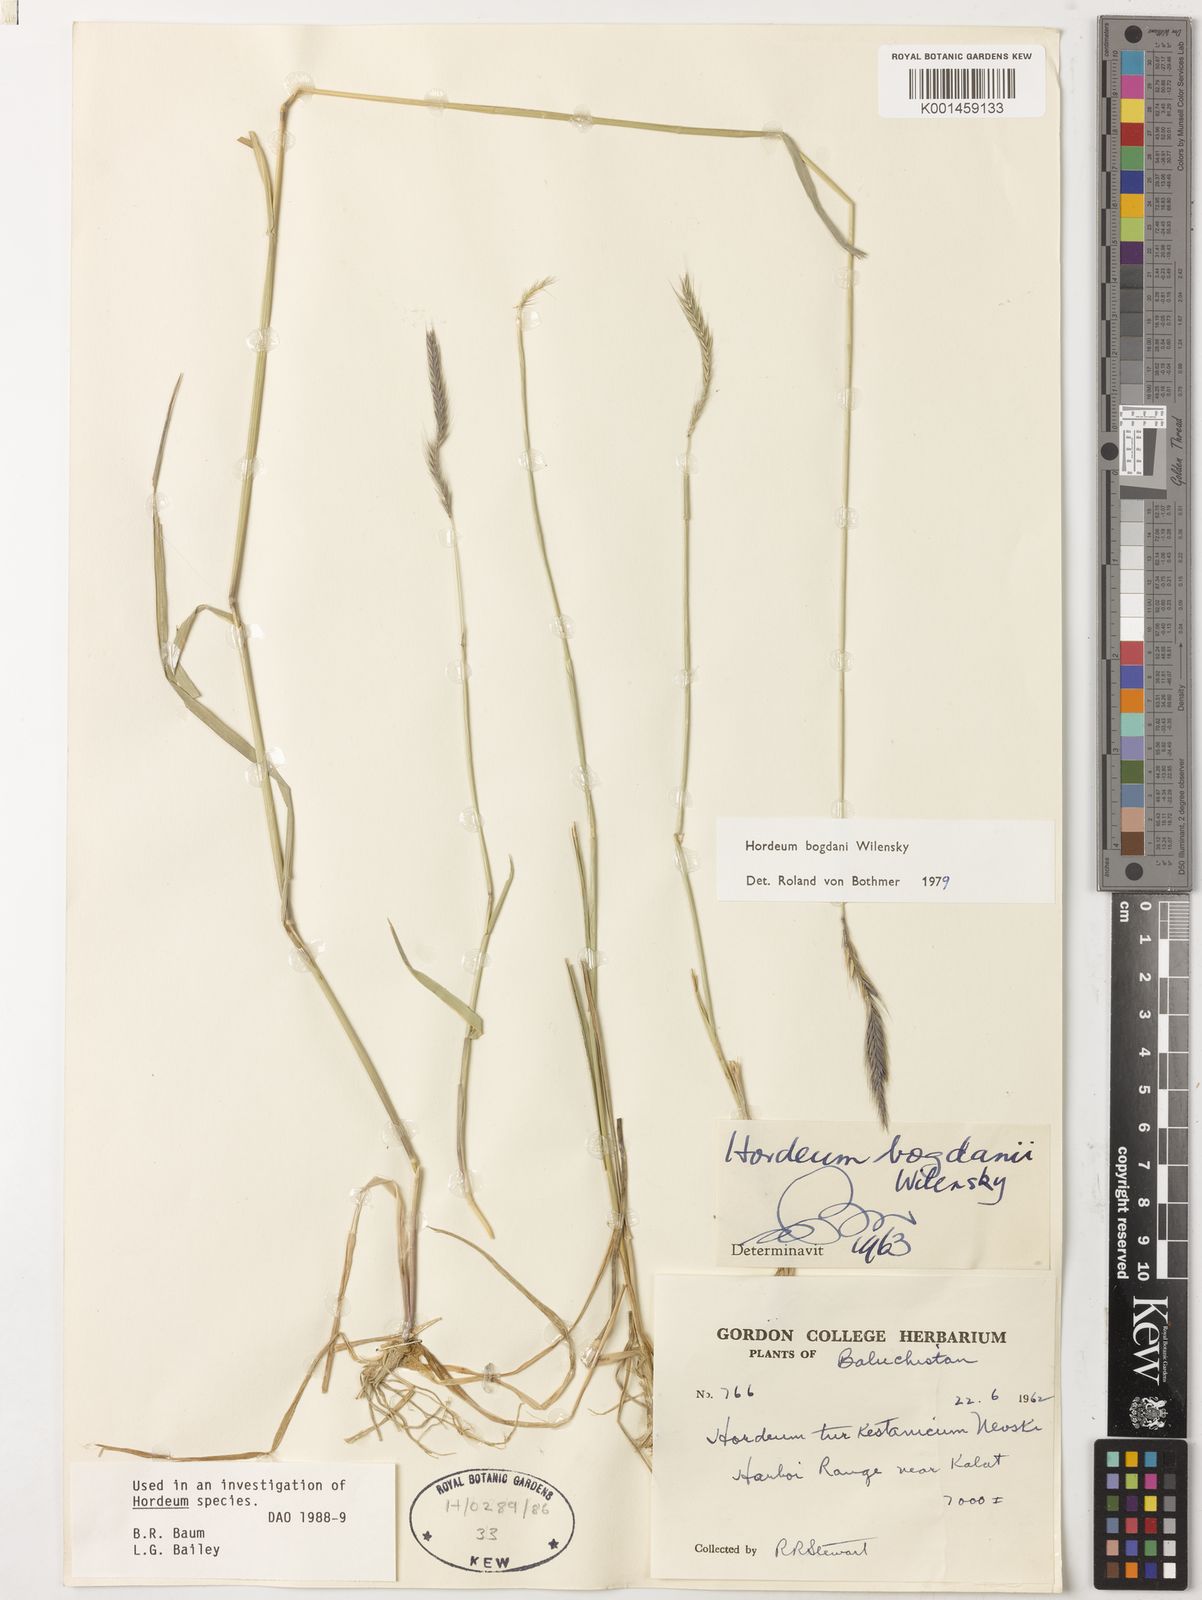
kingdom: Plantae
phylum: Tracheophyta
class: Liliopsida
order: Poales
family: Poaceae
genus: Hordeum
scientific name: Hordeum bogdanii
